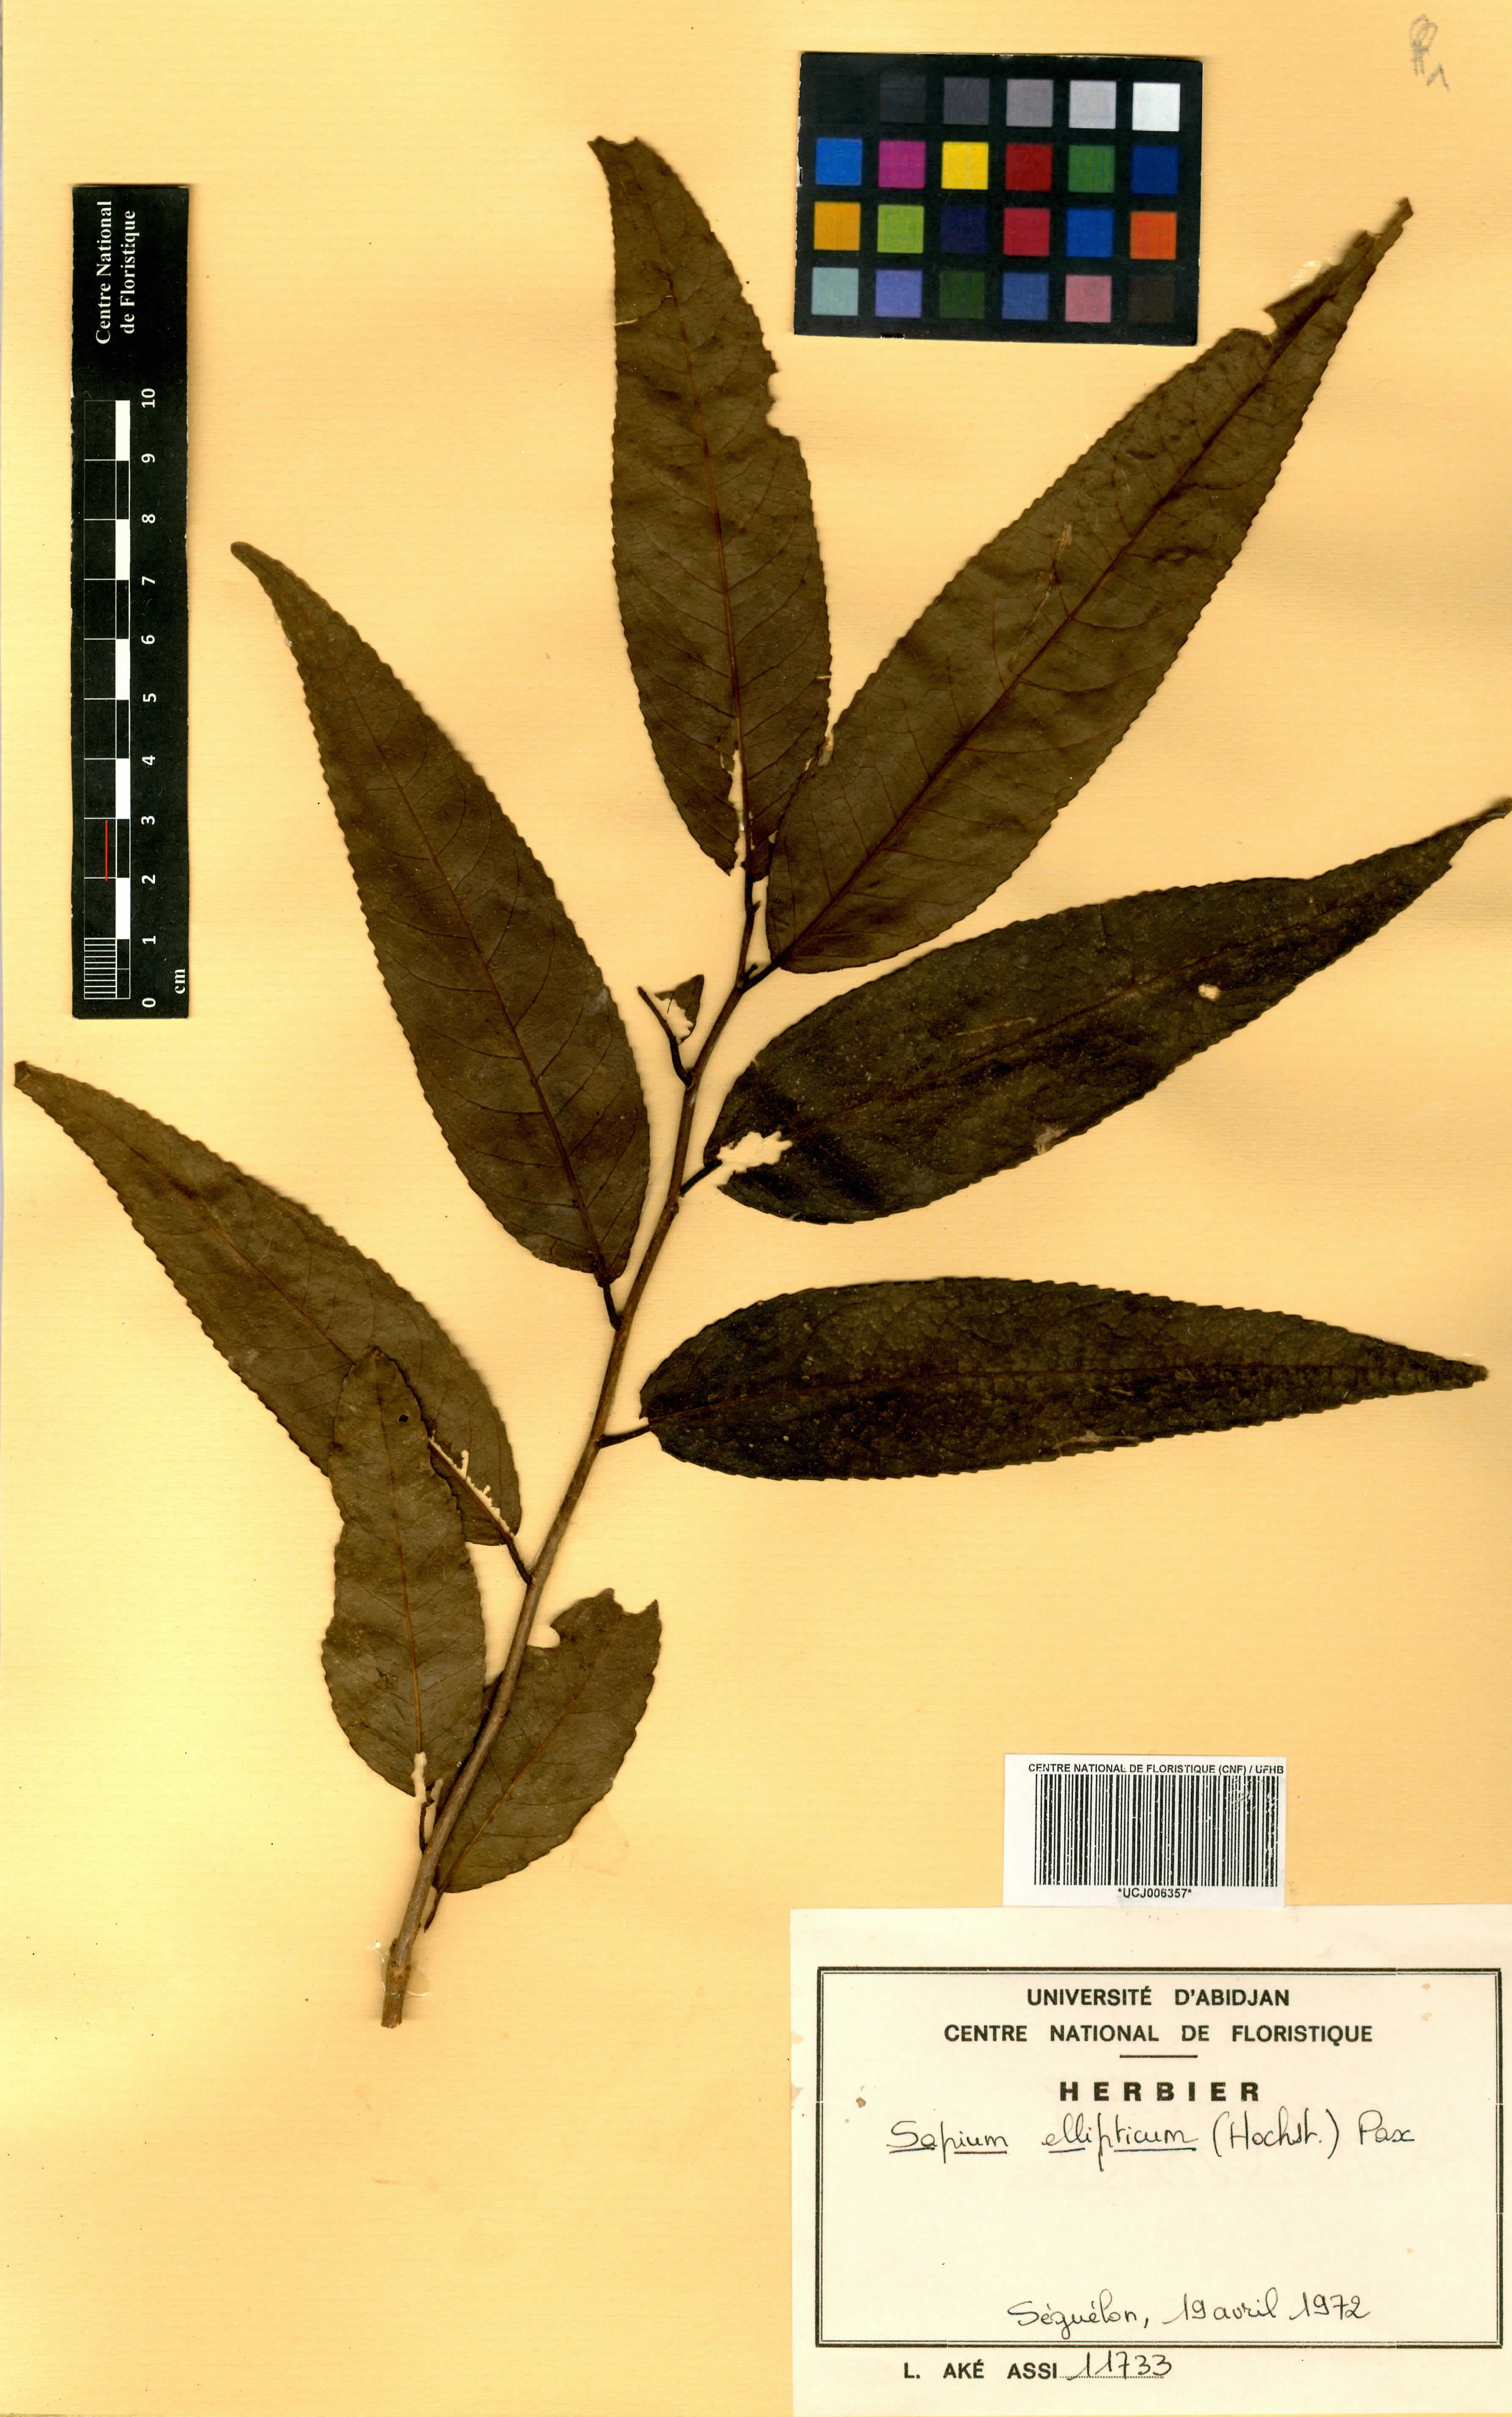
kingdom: Plantae
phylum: Tracheophyta
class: Magnoliopsida
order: Malpighiales
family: Euphorbiaceae
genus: Shirakiopsis
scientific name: Shirakiopsis elliptica
